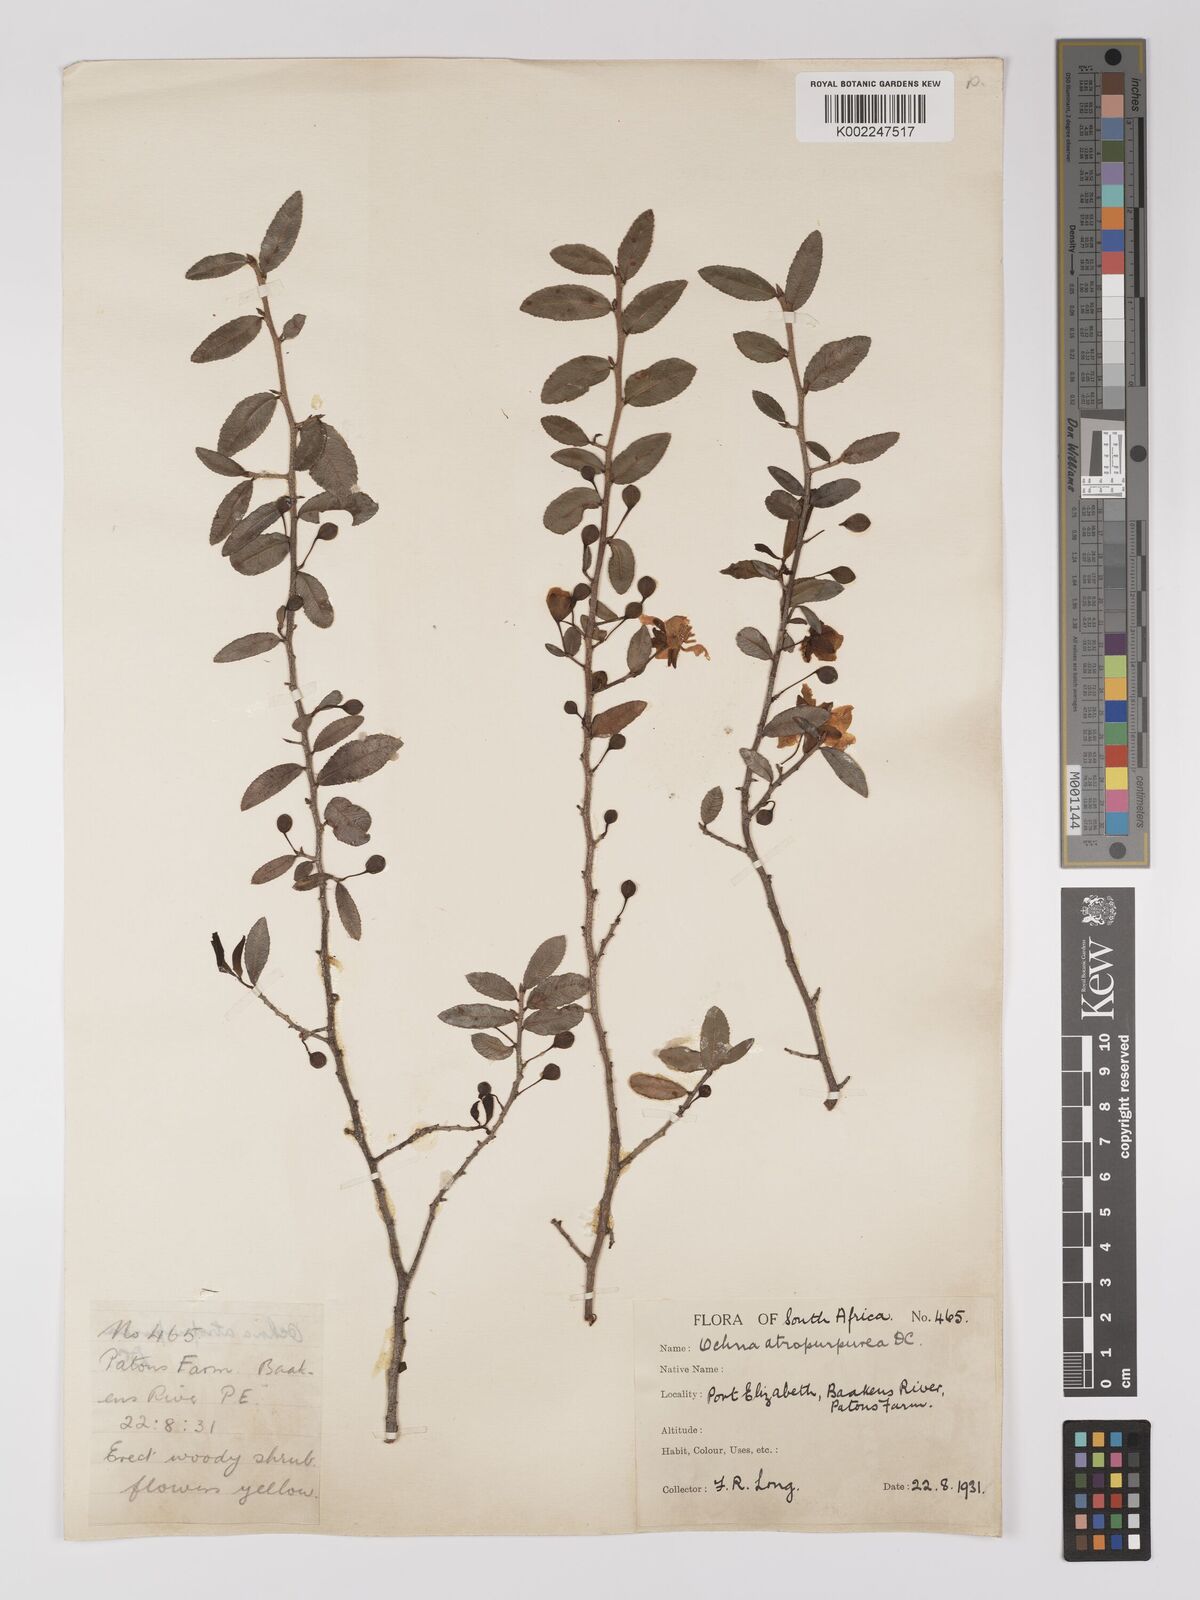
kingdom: Plantae
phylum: Tracheophyta
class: Magnoliopsida
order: Malpighiales
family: Ochnaceae
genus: Ochna
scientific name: Ochna serrulata
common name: Mickey mouse plant
